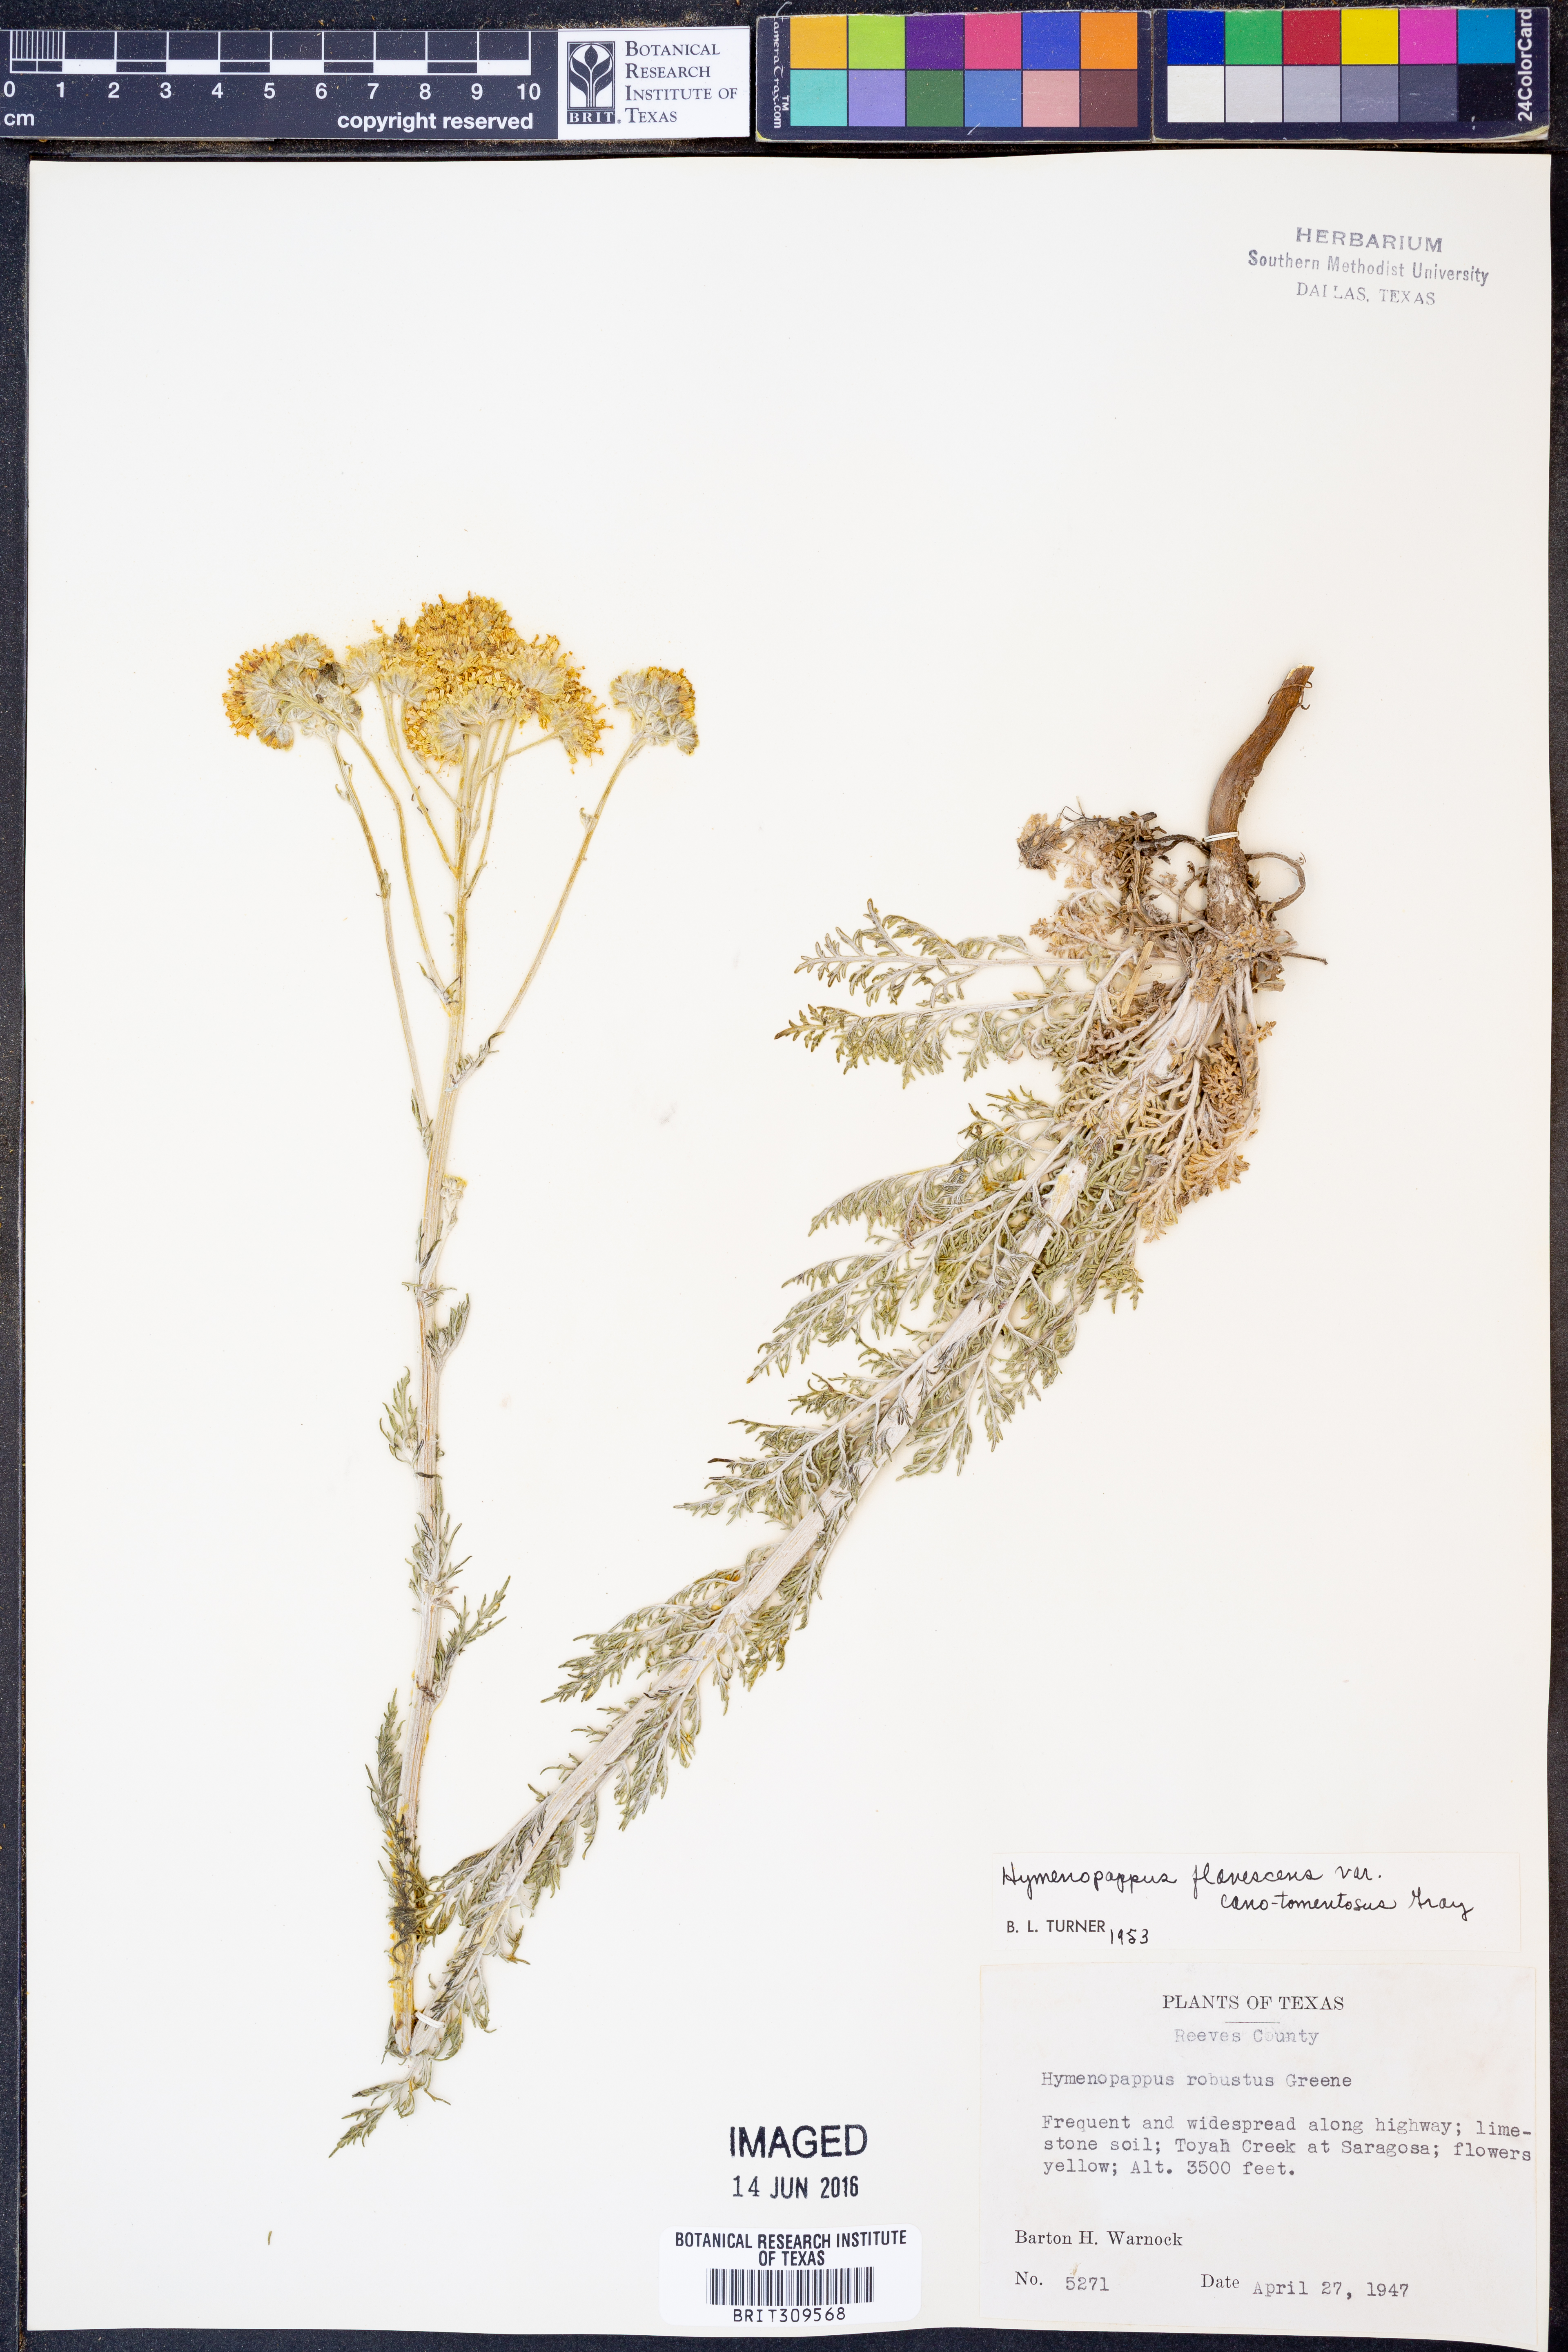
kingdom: Plantae
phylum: Tracheophyta
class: Magnoliopsida
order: Asterales
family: Asteraceae
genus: Hymenopappus
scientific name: Hymenopappus flavescens
